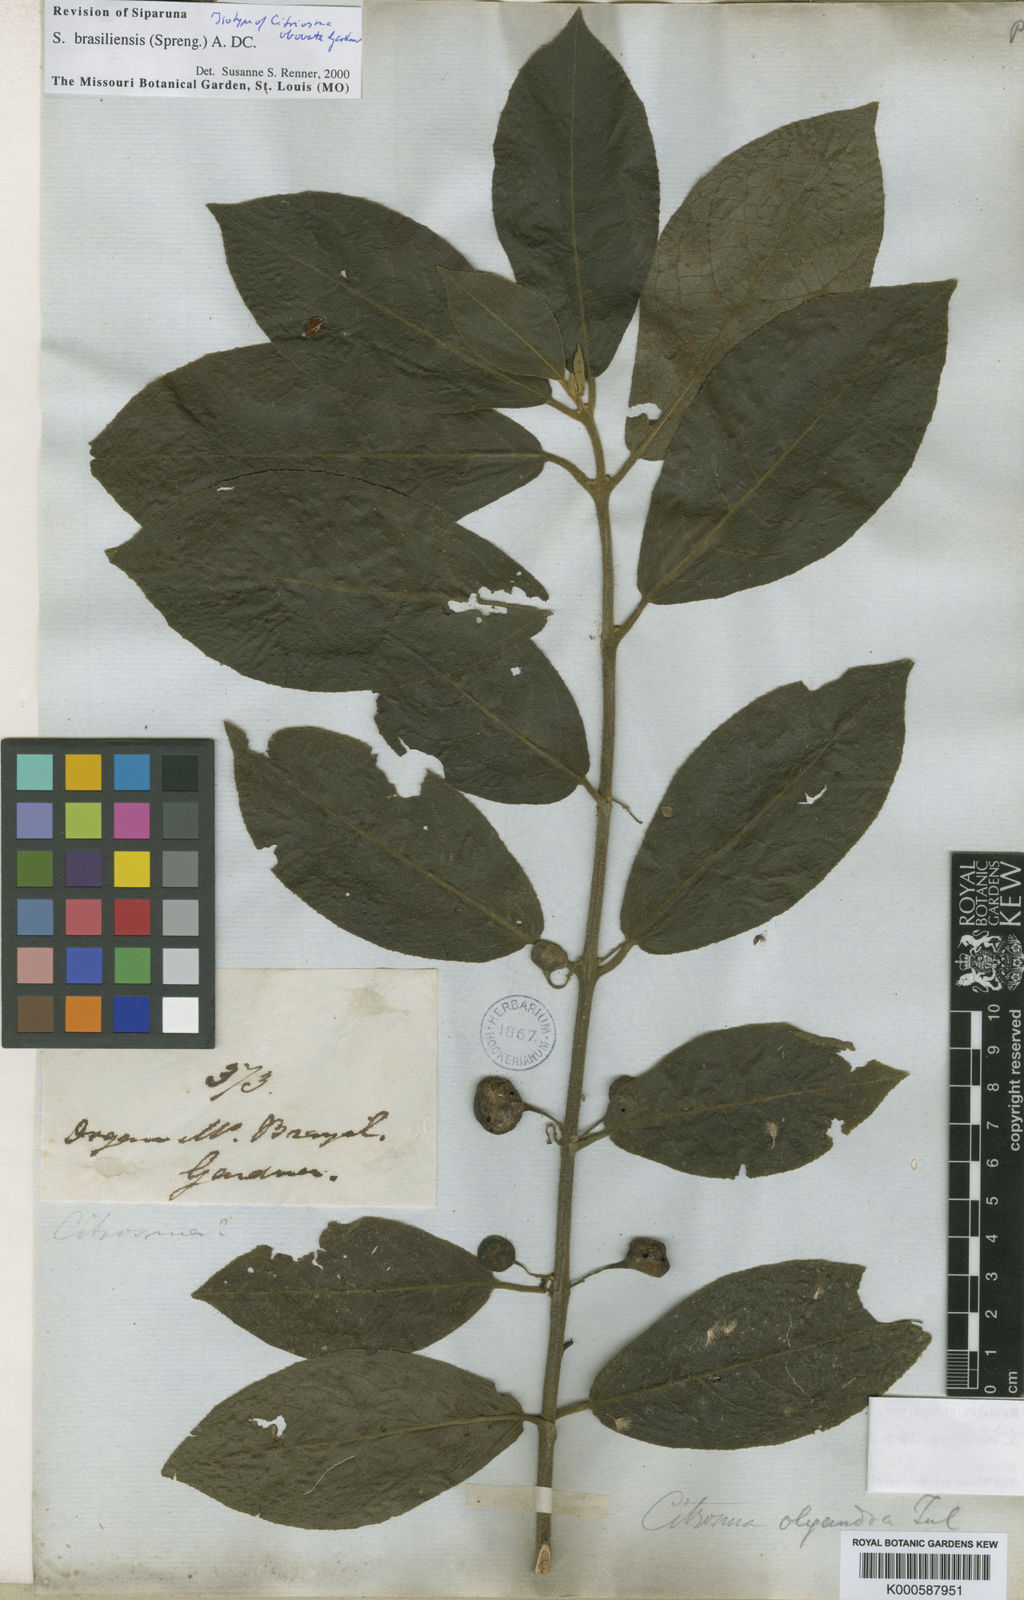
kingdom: Plantae
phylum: Tracheophyta
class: Magnoliopsida
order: Laurales
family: Siparunaceae
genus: Siparuna
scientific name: Siparuna brasiliensis
